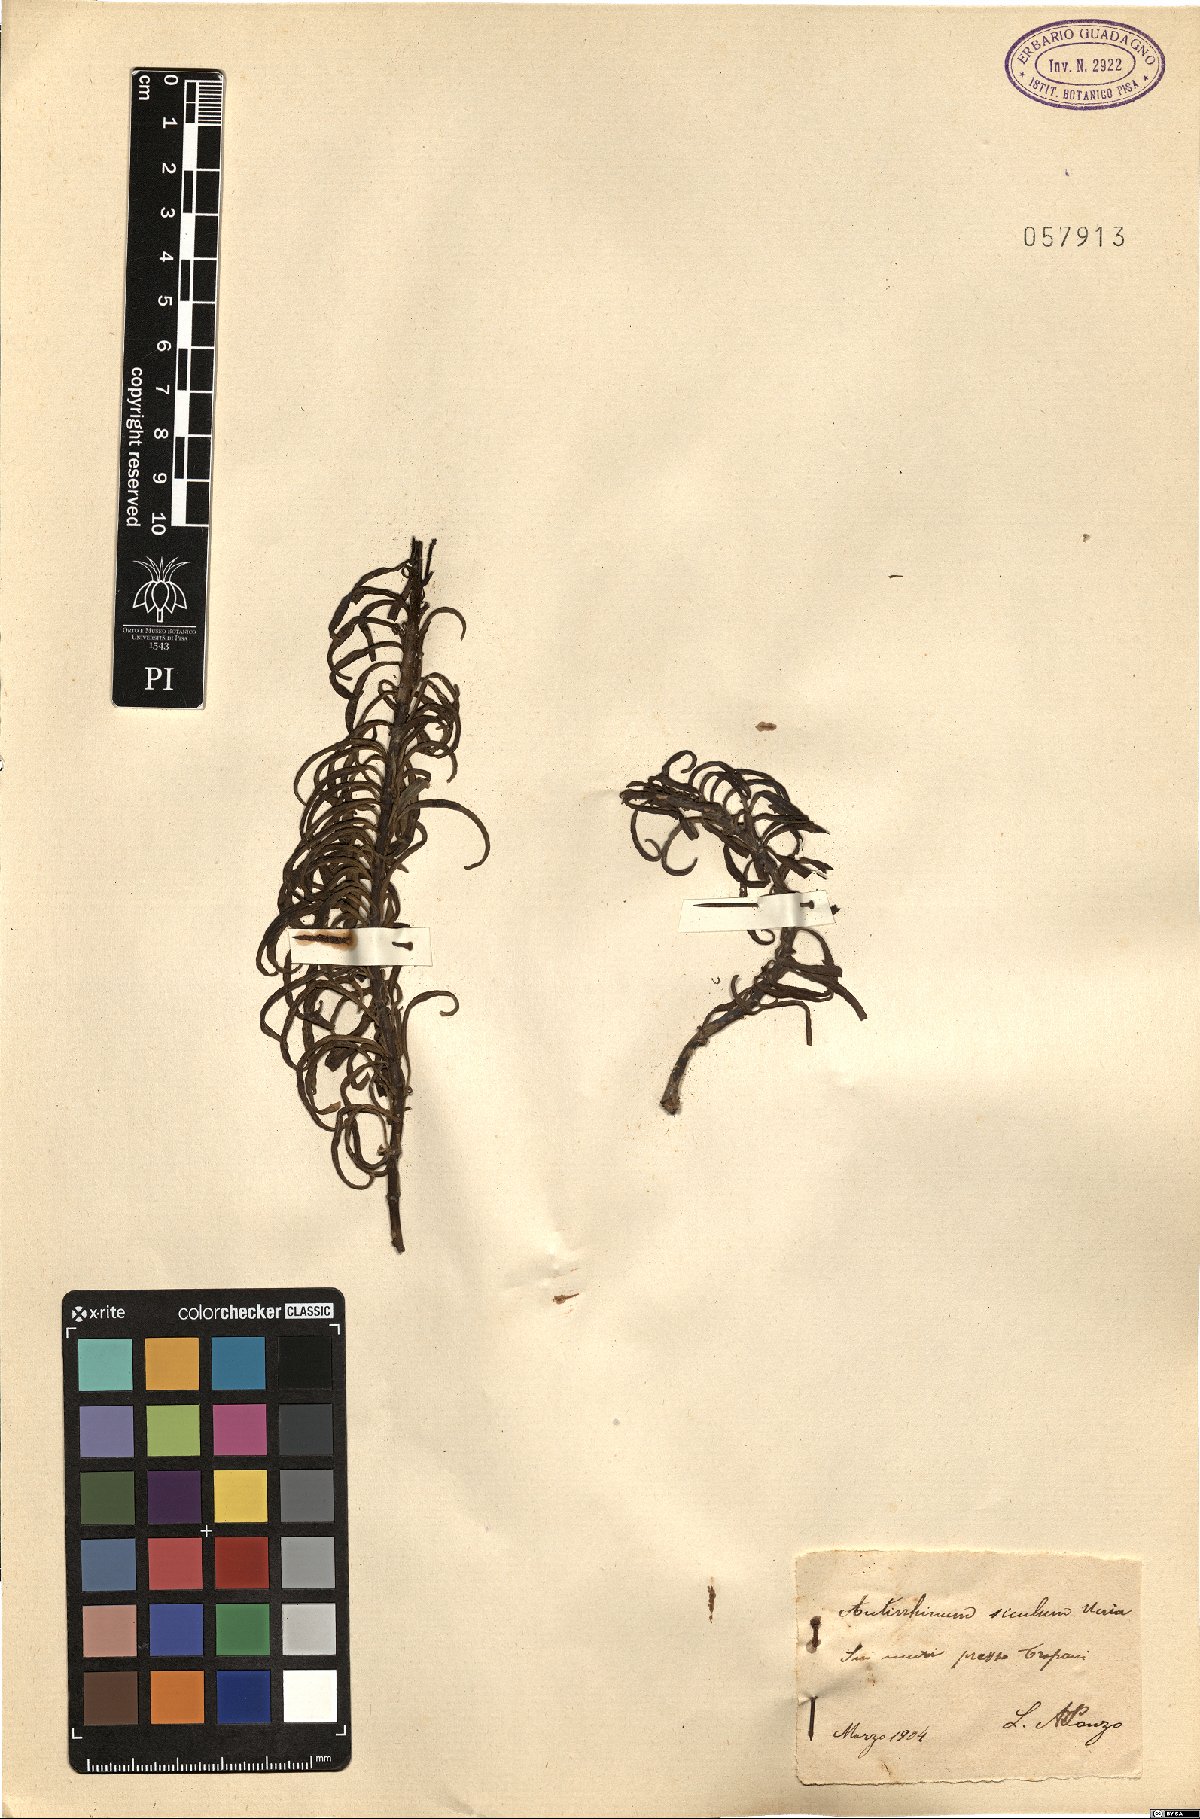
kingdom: Plantae
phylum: Tracheophyta
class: Magnoliopsida
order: Lamiales
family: Plantaginaceae
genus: Antirrhinum
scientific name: Antirrhinum siculum
